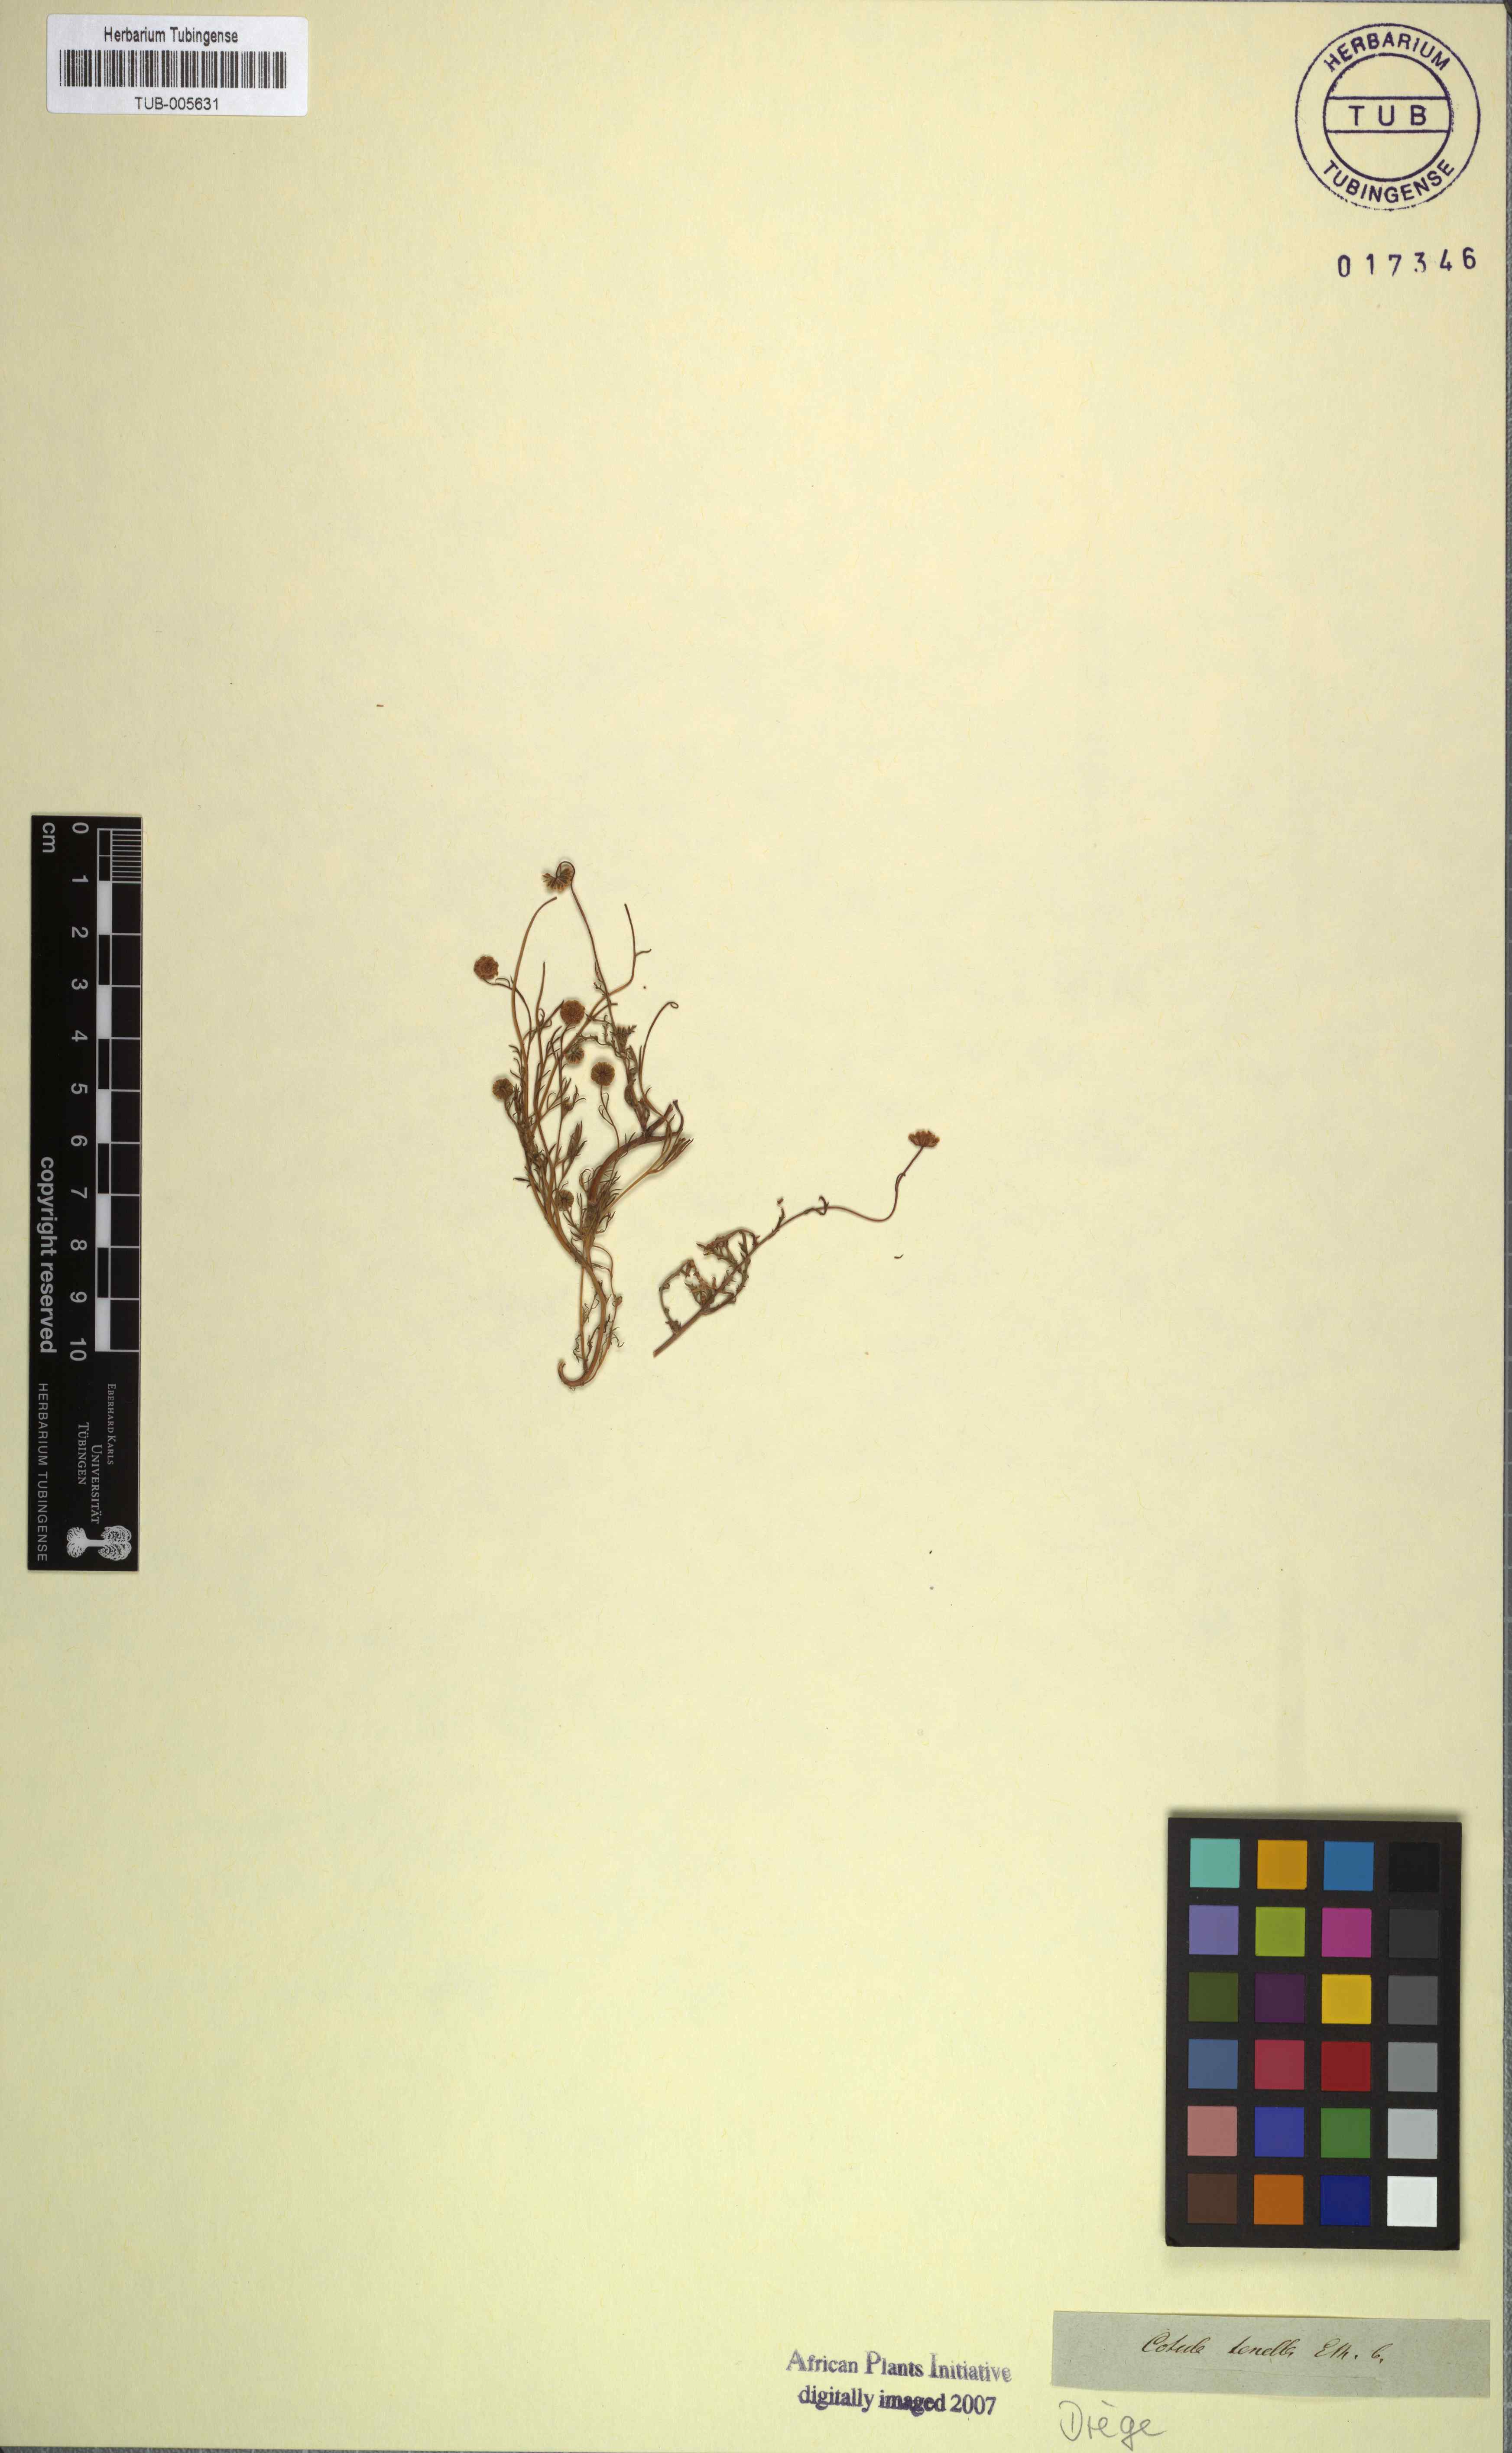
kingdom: Plantae
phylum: Tracheophyta
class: Magnoliopsida
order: Asterales
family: Asteraceae
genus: Cotula
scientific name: Cotula tenella
